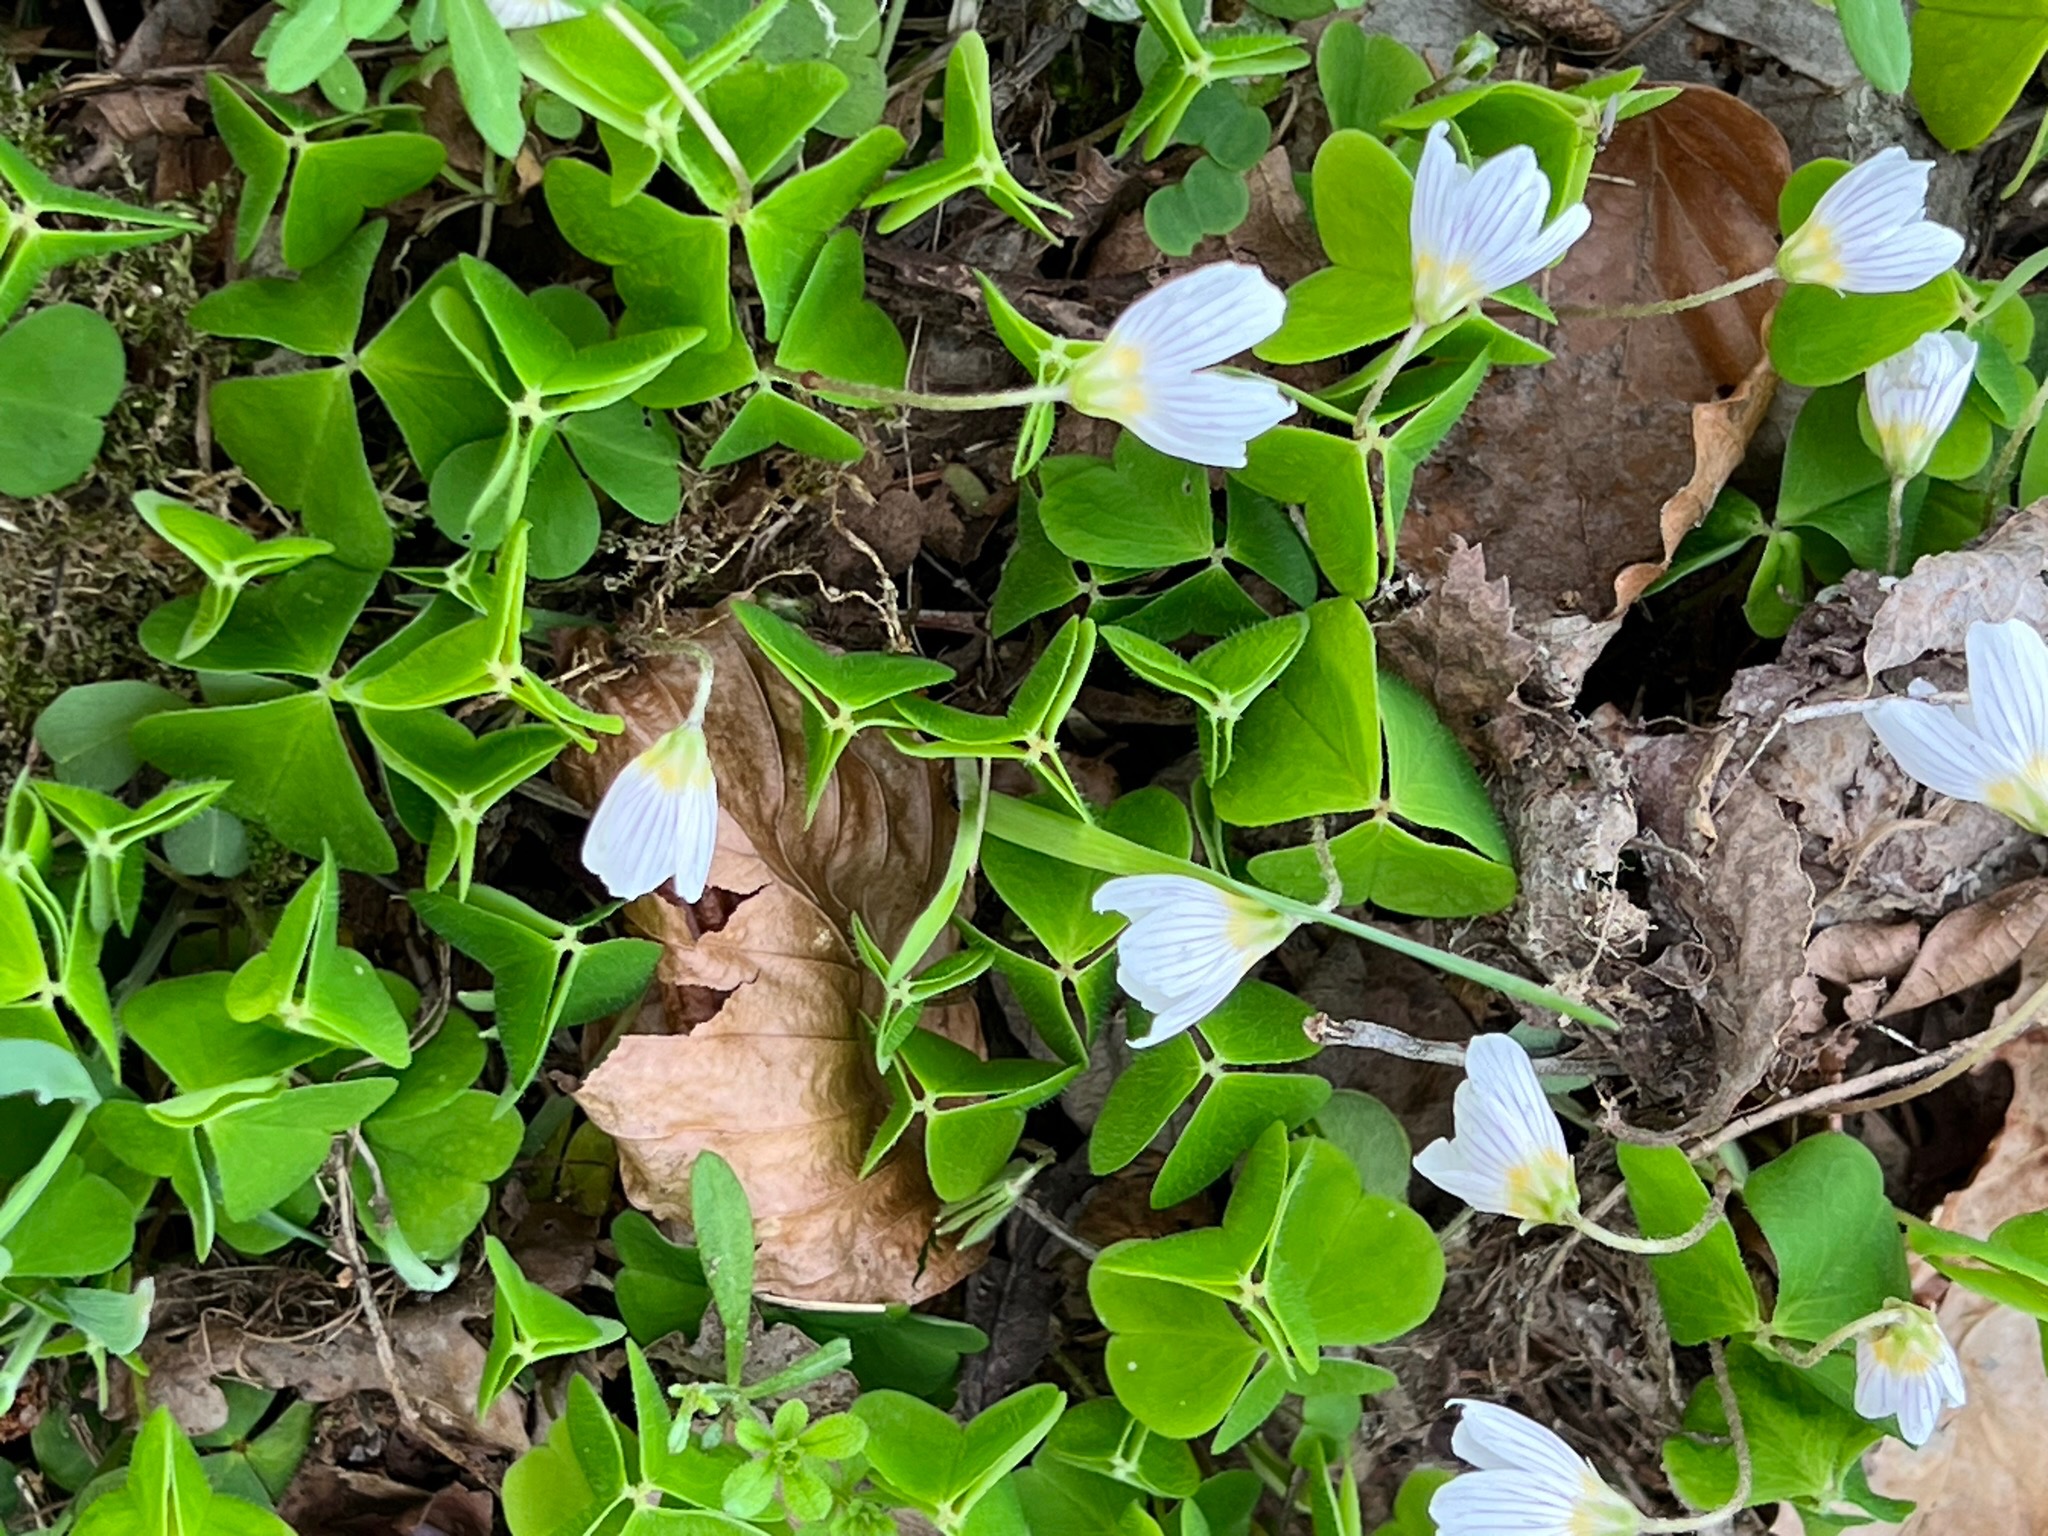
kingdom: Plantae
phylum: Tracheophyta
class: Magnoliopsida
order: Oxalidales
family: Oxalidaceae
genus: Oxalis
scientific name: Oxalis acetosella
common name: Skovsyre
